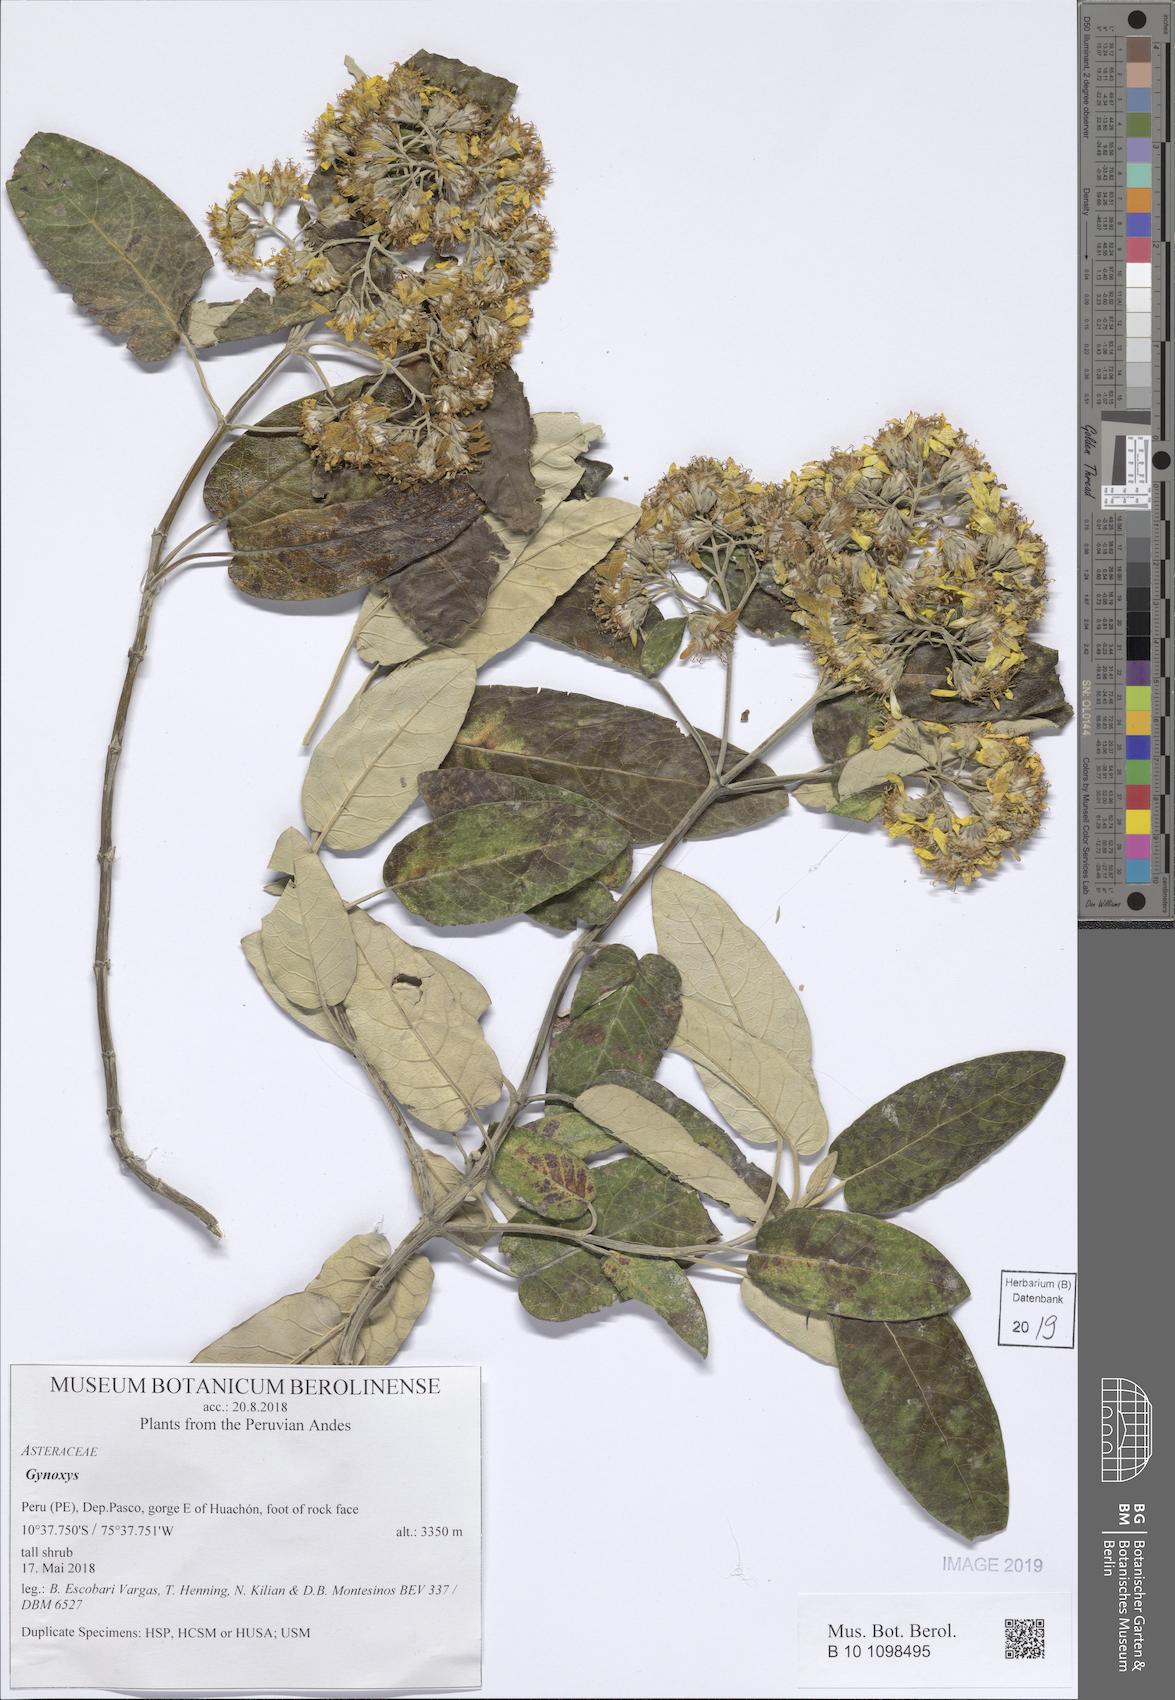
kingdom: Plantae
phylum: Tracheophyta
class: Magnoliopsida
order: Asterales
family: Asteraceae
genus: Gynoxys
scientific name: Gynoxys
